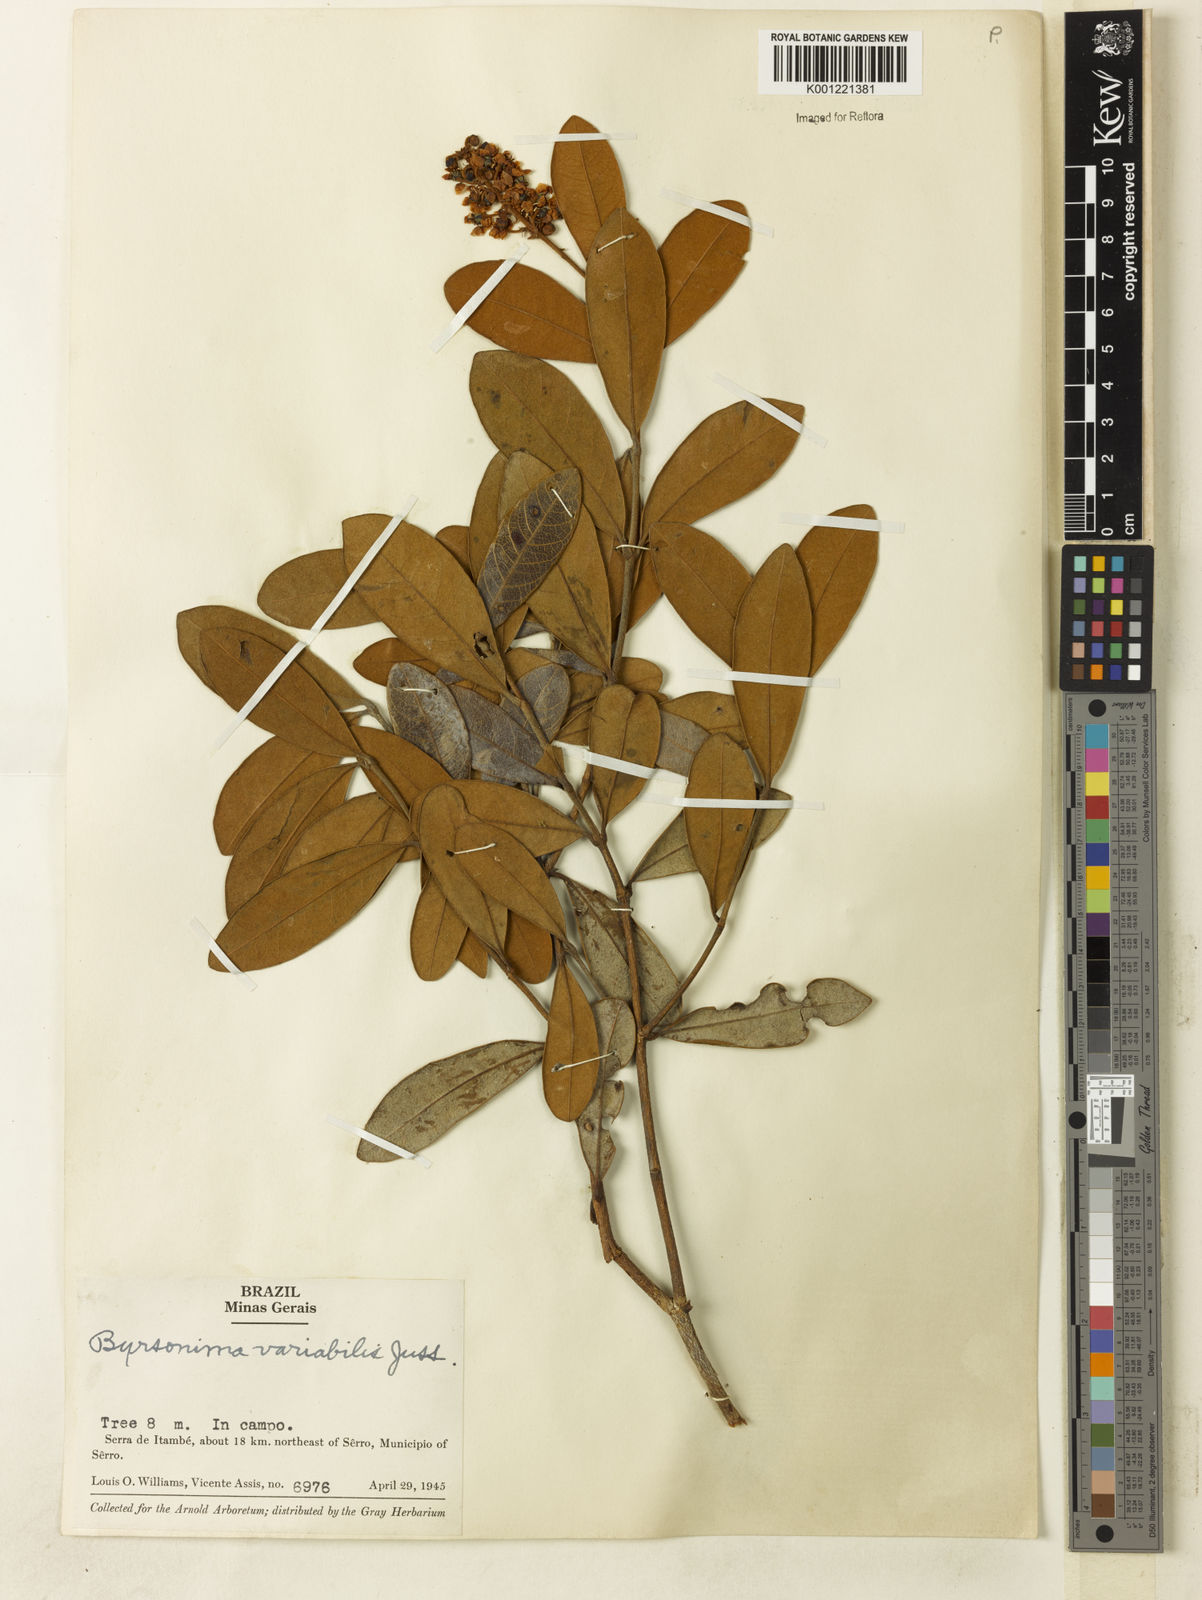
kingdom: Plantae
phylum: Tracheophyta
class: Magnoliopsida
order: Malpighiales
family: Malpighiaceae
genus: Byrsonima
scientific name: Byrsonima variabilis
